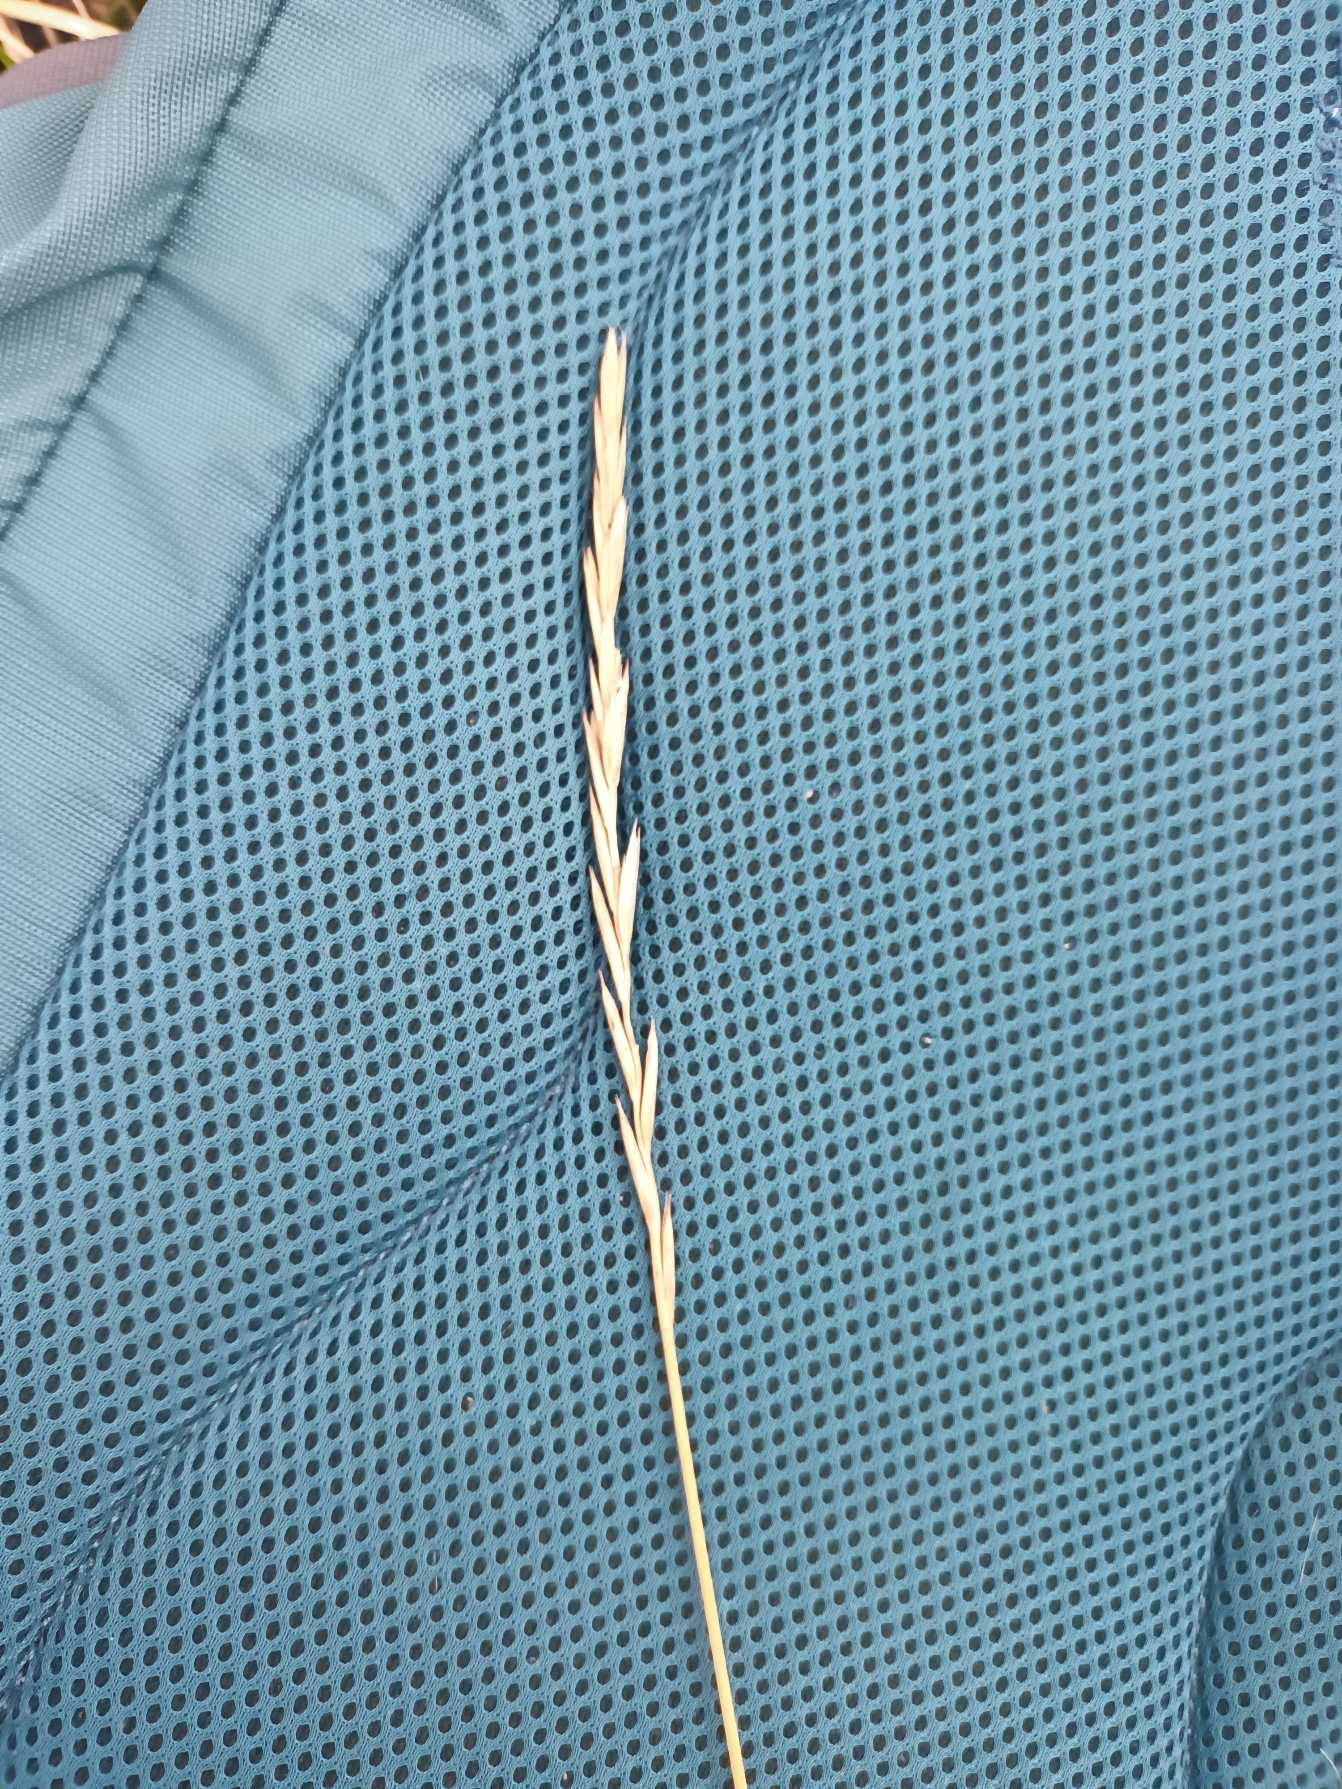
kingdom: Plantae
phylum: Tracheophyta
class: Liliopsida
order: Poales
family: Poaceae
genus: Elymus
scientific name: Elymus repens
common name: Almindelig kvik
